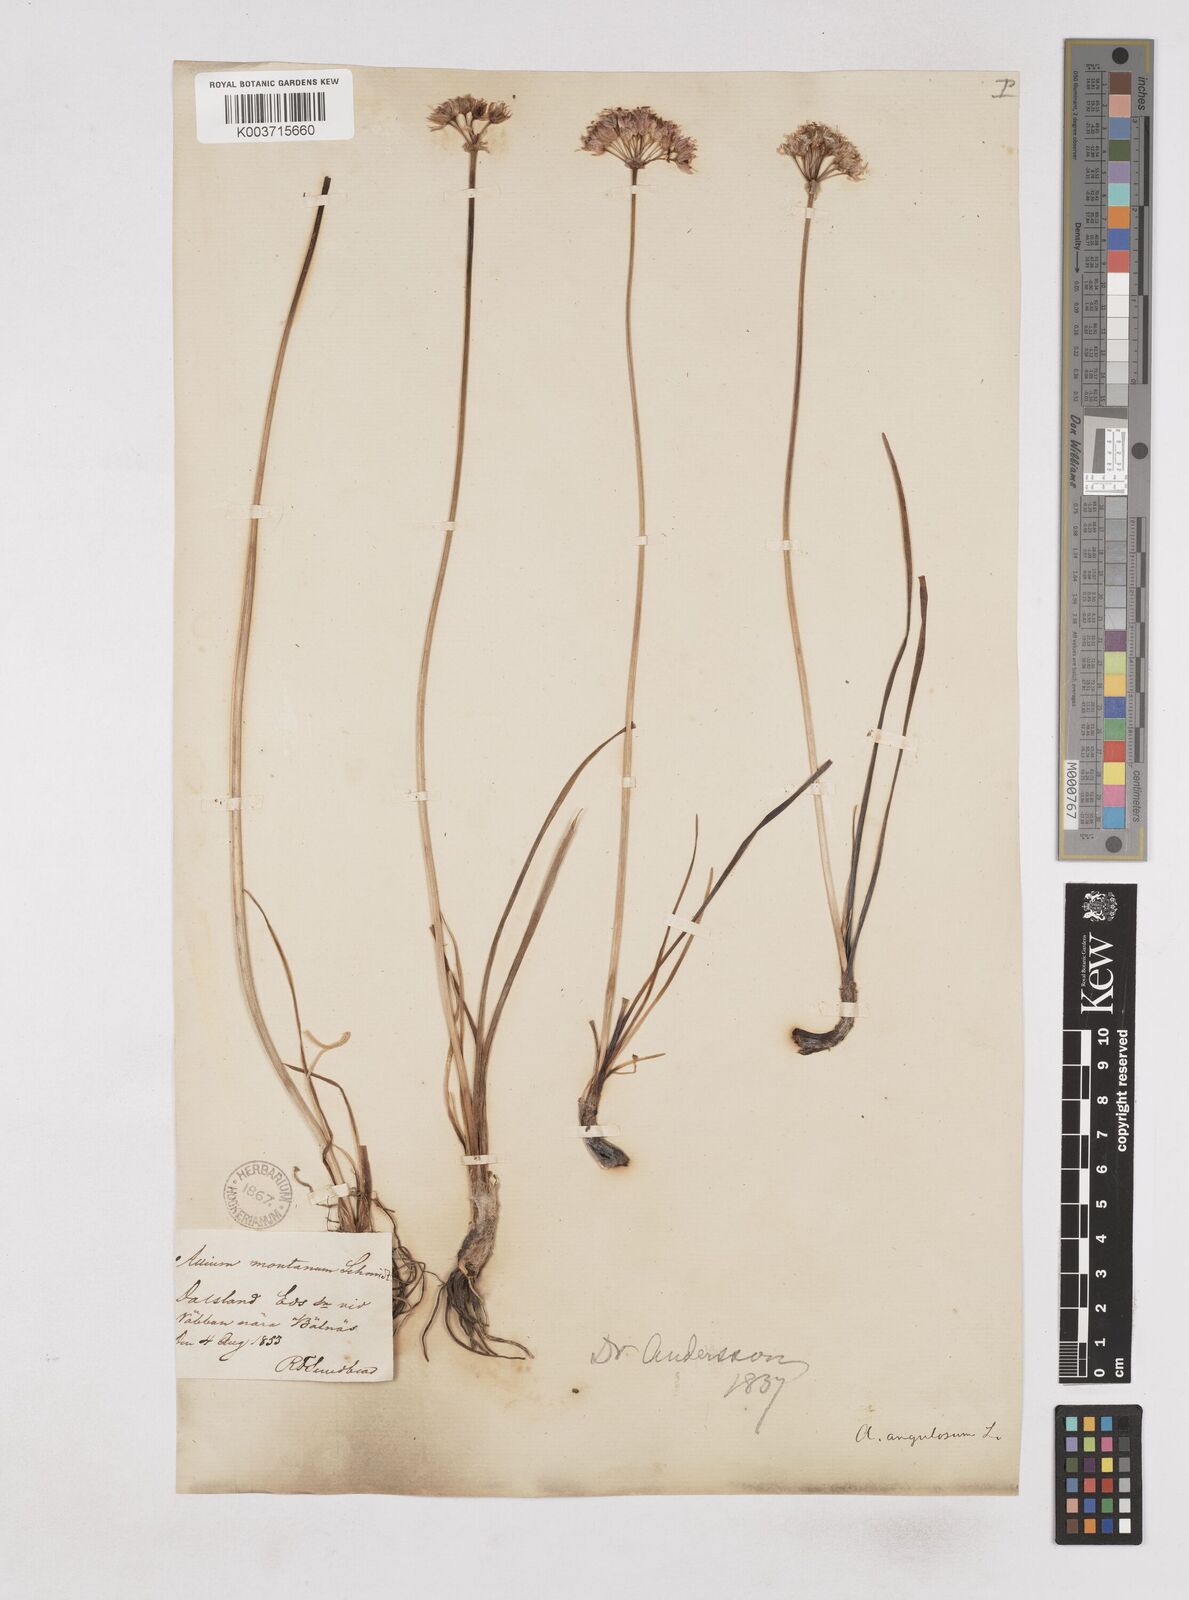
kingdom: Plantae
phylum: Tracheophyta
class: Liliopsida
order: Asparagales
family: Amaryllidaceae
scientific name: Amaryllidaceae
